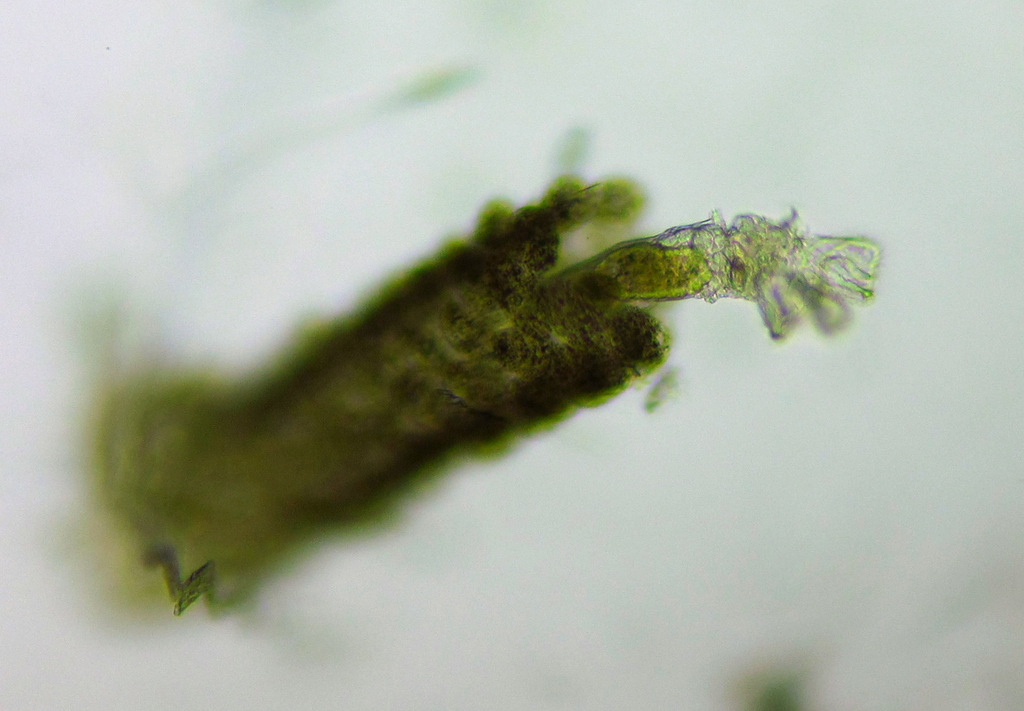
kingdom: Animalia
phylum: Rotifera
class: Eurotatoria
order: Flosculariaceae
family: Flosculariidae
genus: Floscularia
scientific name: Floscularia ringens
